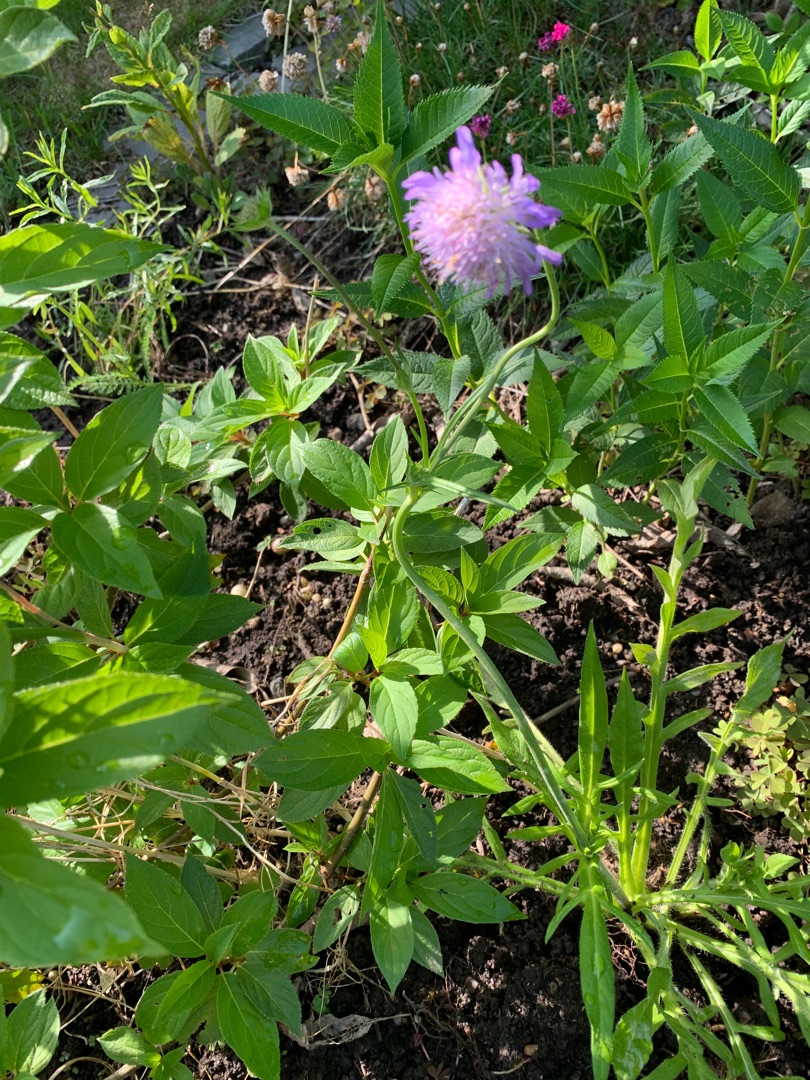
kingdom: Plantae
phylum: Tracheophyta
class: Magnoliopsida
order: Dipsacales
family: Caprifoliaceae
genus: Knautia
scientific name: Knautia arvensis
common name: Blåhat
